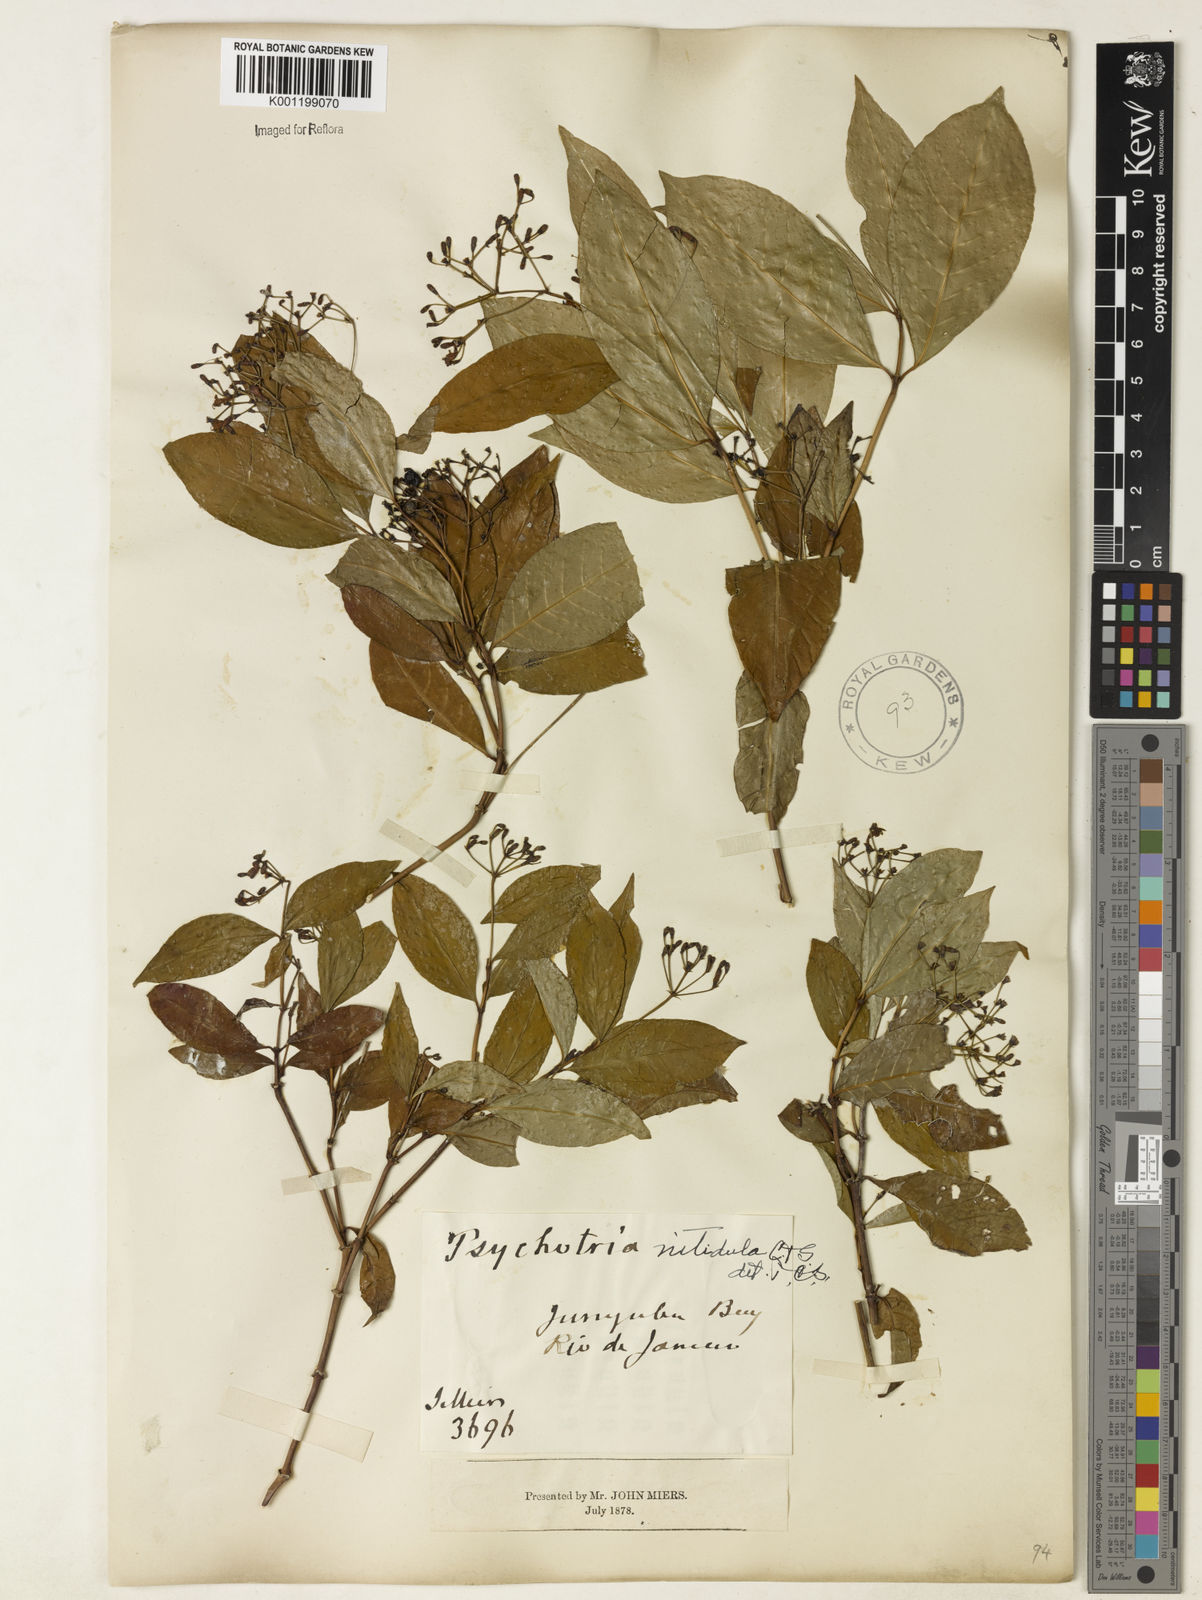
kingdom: Plantae
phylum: Tracheophyta
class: Magnoliopsida
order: Gentianales
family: Rubiaceae
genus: Psychotria
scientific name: Psychotria leiocarpa
